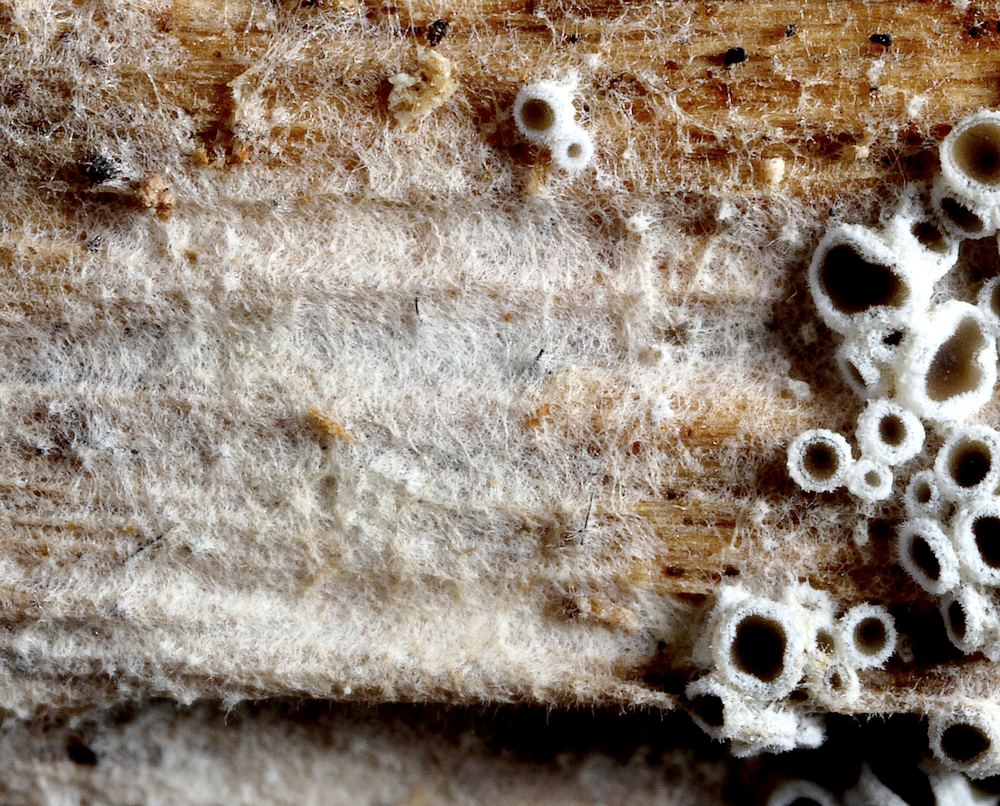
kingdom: Fungi
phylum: Ascomycota
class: Leotiomycetes
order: Helotiales
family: Arachnopezizaceae
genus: Eriopezia
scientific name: Eriopezia caesia
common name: ege-spindskive
